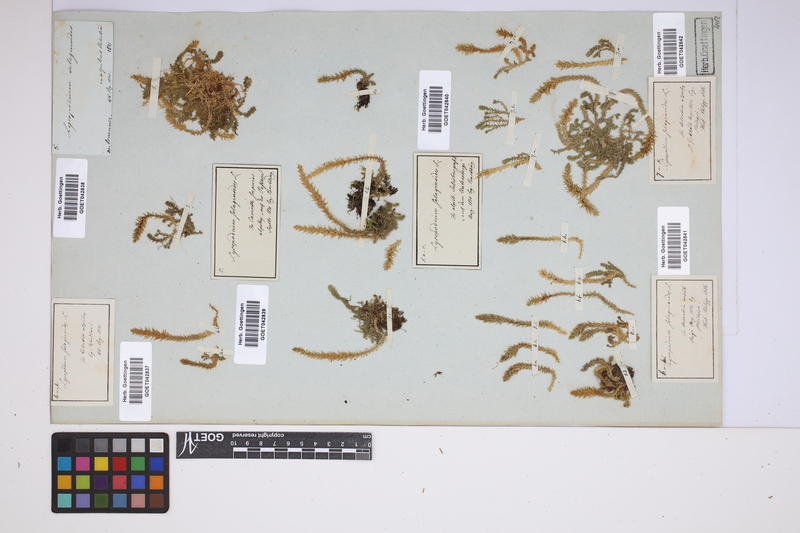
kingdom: Plantae
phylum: Tracheophyta
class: Lycopodiopsida
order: Selaginellales
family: Selaginellaceae
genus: Selaginella
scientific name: Selaginella selaginoides
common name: Prickly mountain-moss
